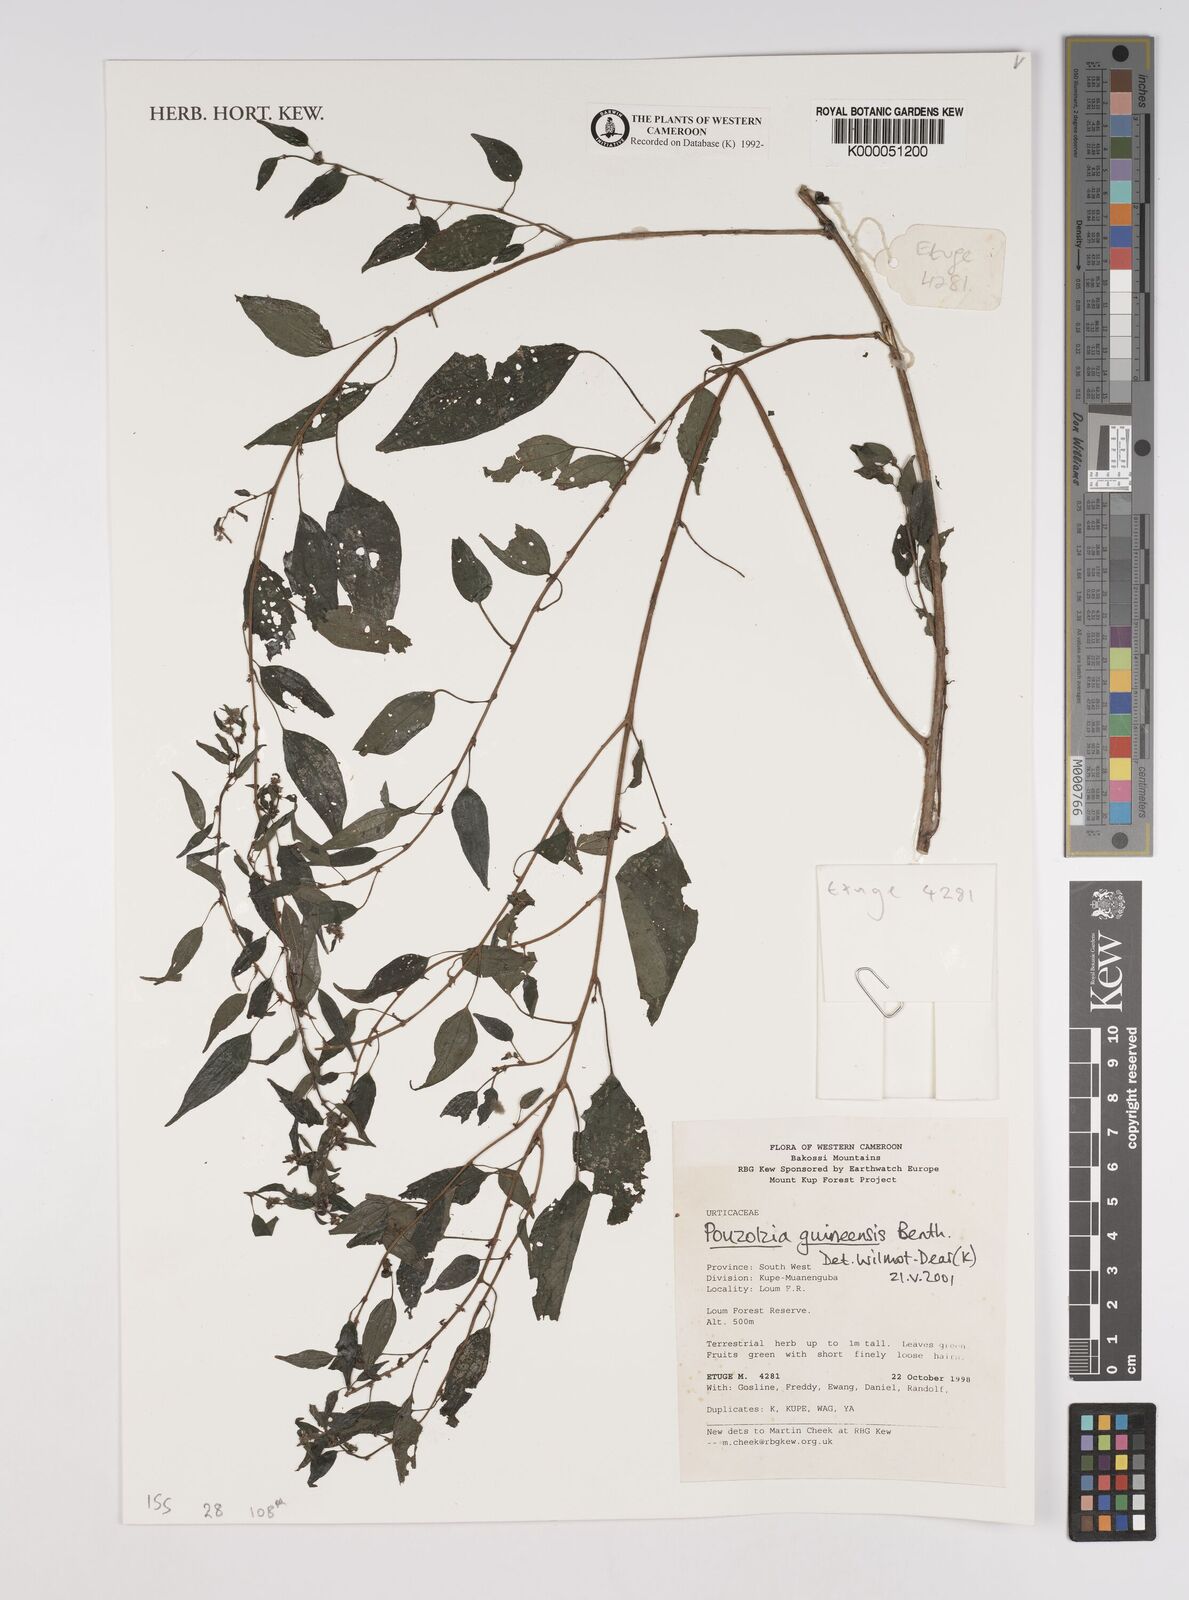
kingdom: Plantae
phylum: Tracheophyta
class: Magnoliopsida
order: Rosales
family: Urticaceae
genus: Pouzolzia
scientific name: Pouzolzia guineensis
